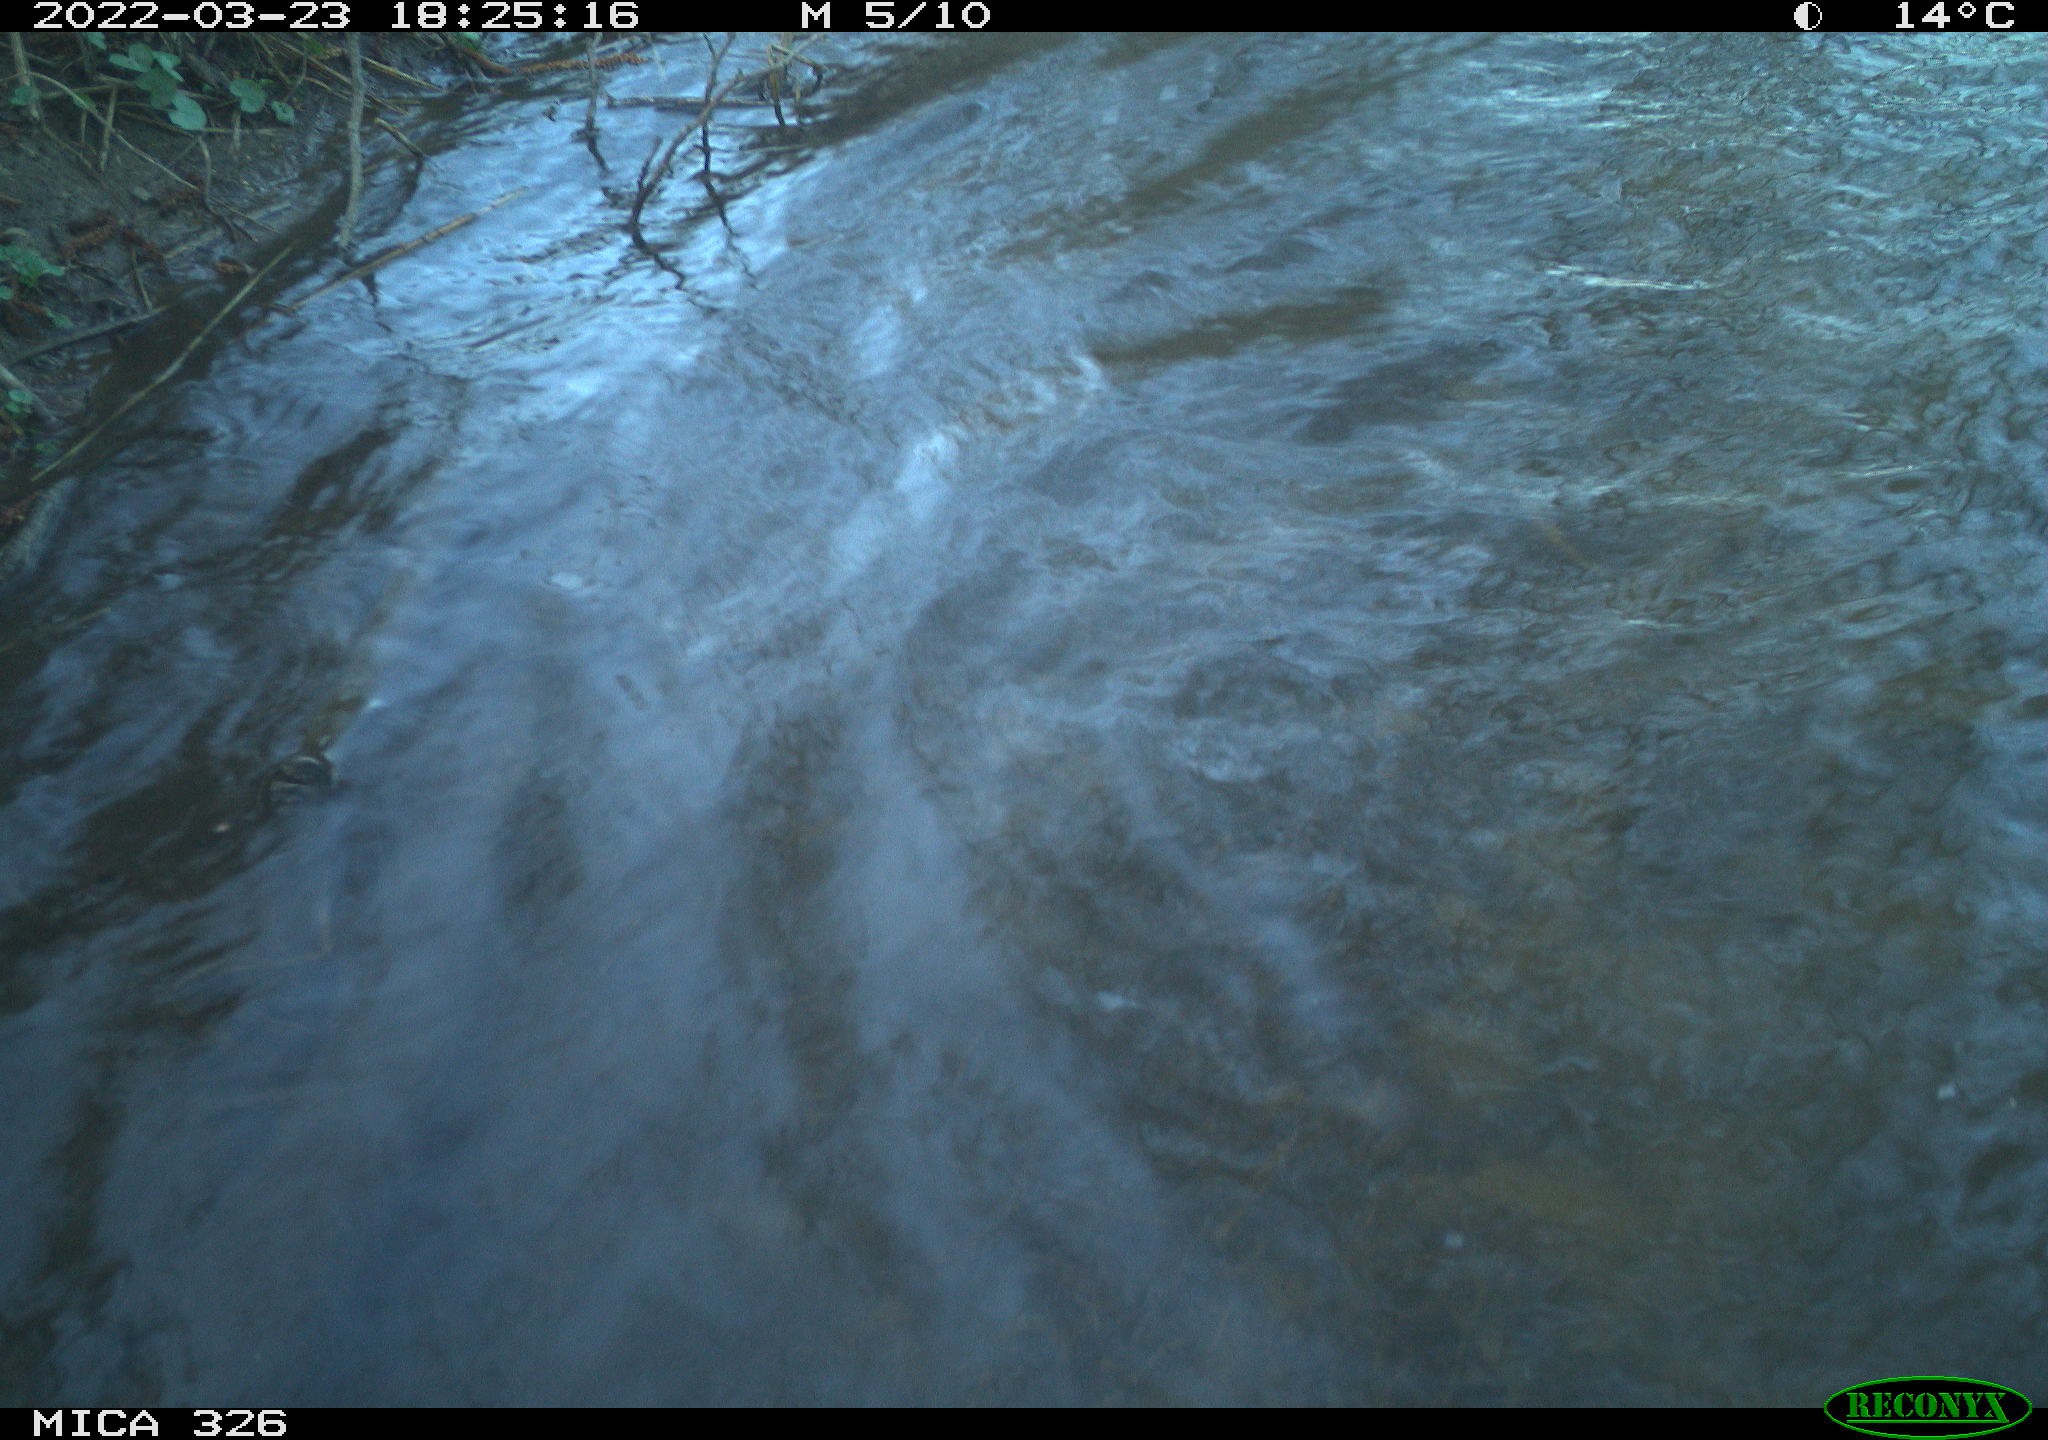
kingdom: Animalia
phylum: Chordata
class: Aves
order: Anseriformes
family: Anatidae
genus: Anas
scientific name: Anas platyrhynchos
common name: Mallard
